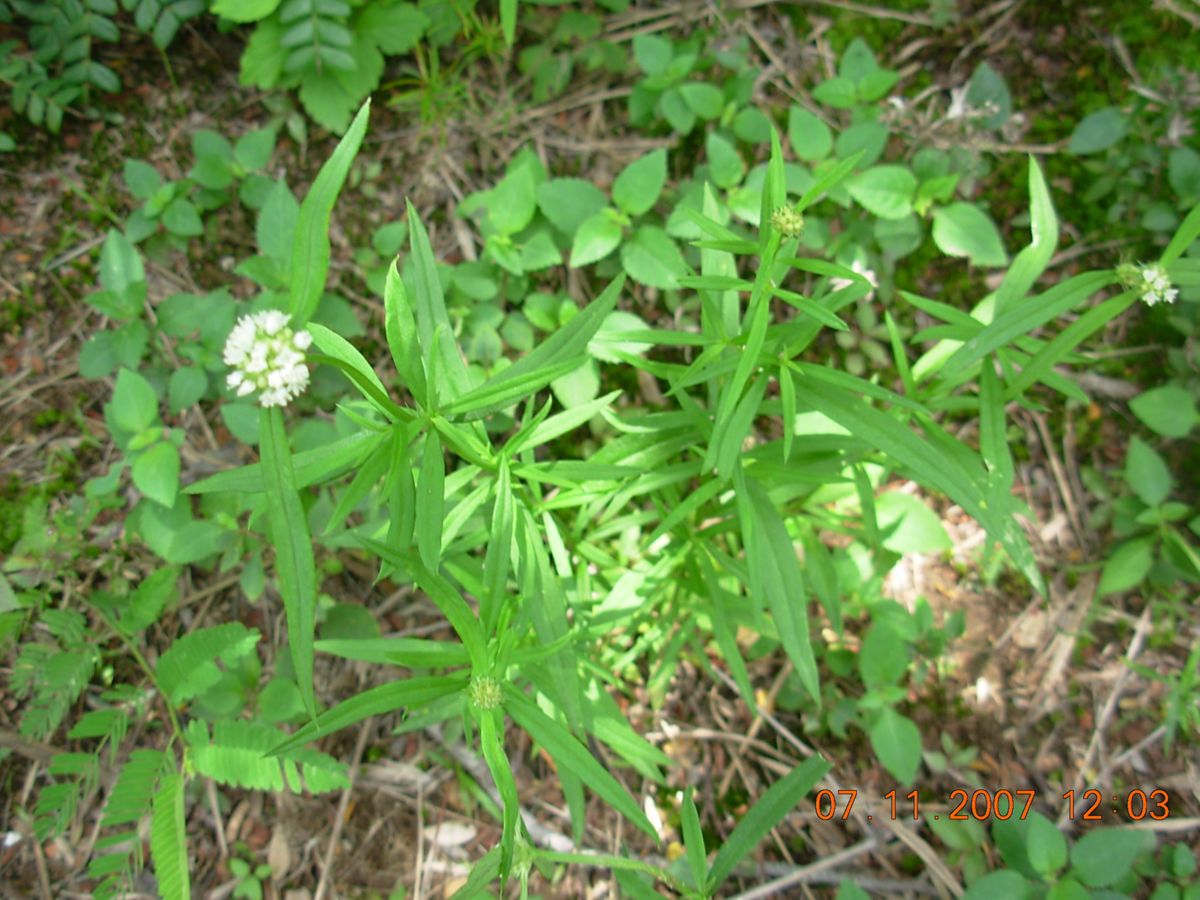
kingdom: Plantae
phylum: Tracheophyta
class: Magnoliopsida
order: Gentianales
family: Rubiaceae
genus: Spermacoce
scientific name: Spermacoce verticillata
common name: Shrubby false buttonweed
